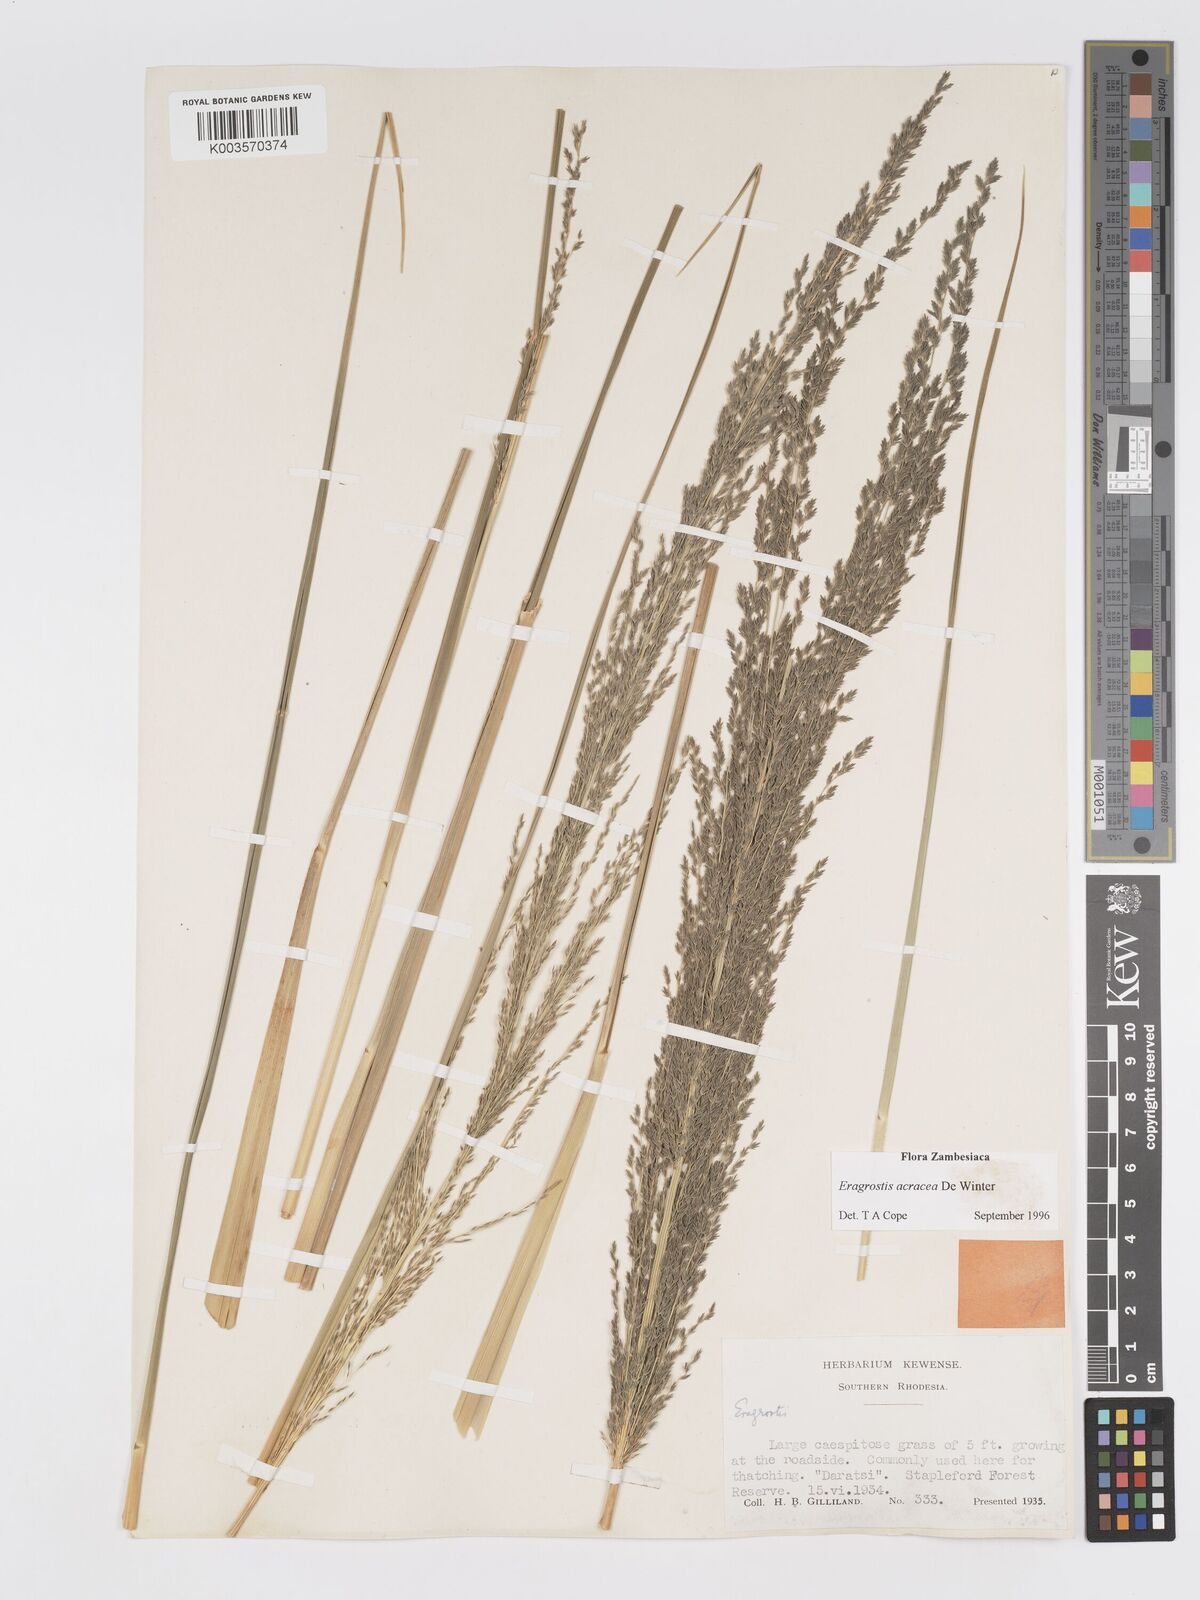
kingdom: Plantae
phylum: Tracheophyta
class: Liliopsida
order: Poales
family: Poaceae
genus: Eragrostis
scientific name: Eragrostis acraea
